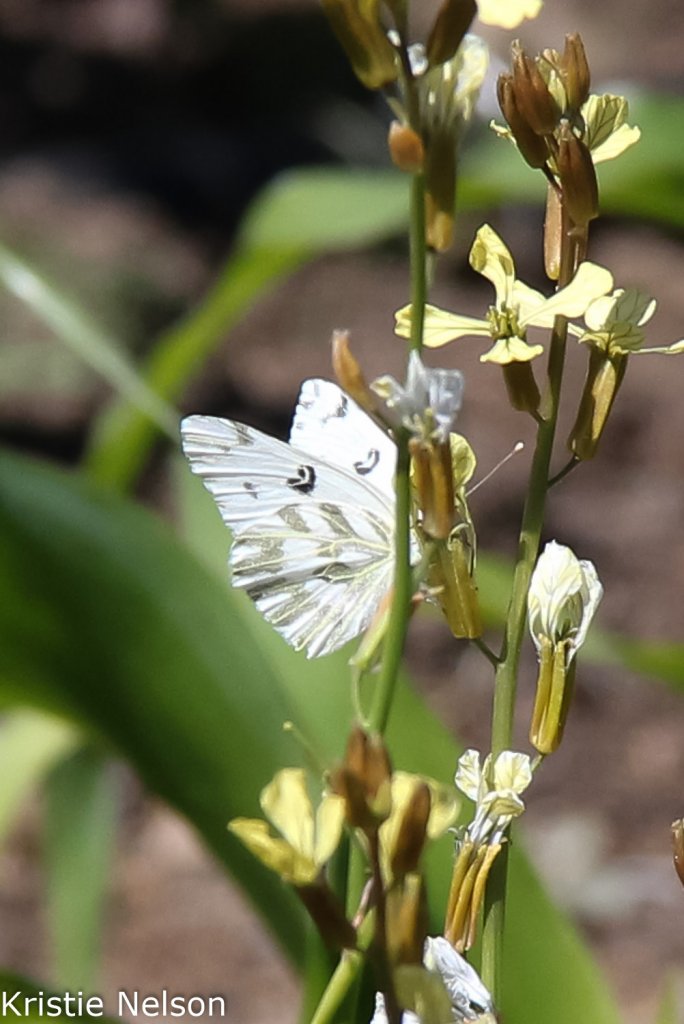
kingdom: Animalia
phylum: Arthropoda
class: Insecta
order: Lepidoptera
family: Pieridae
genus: Pontia
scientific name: Pontia beckerii
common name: Becker's White
